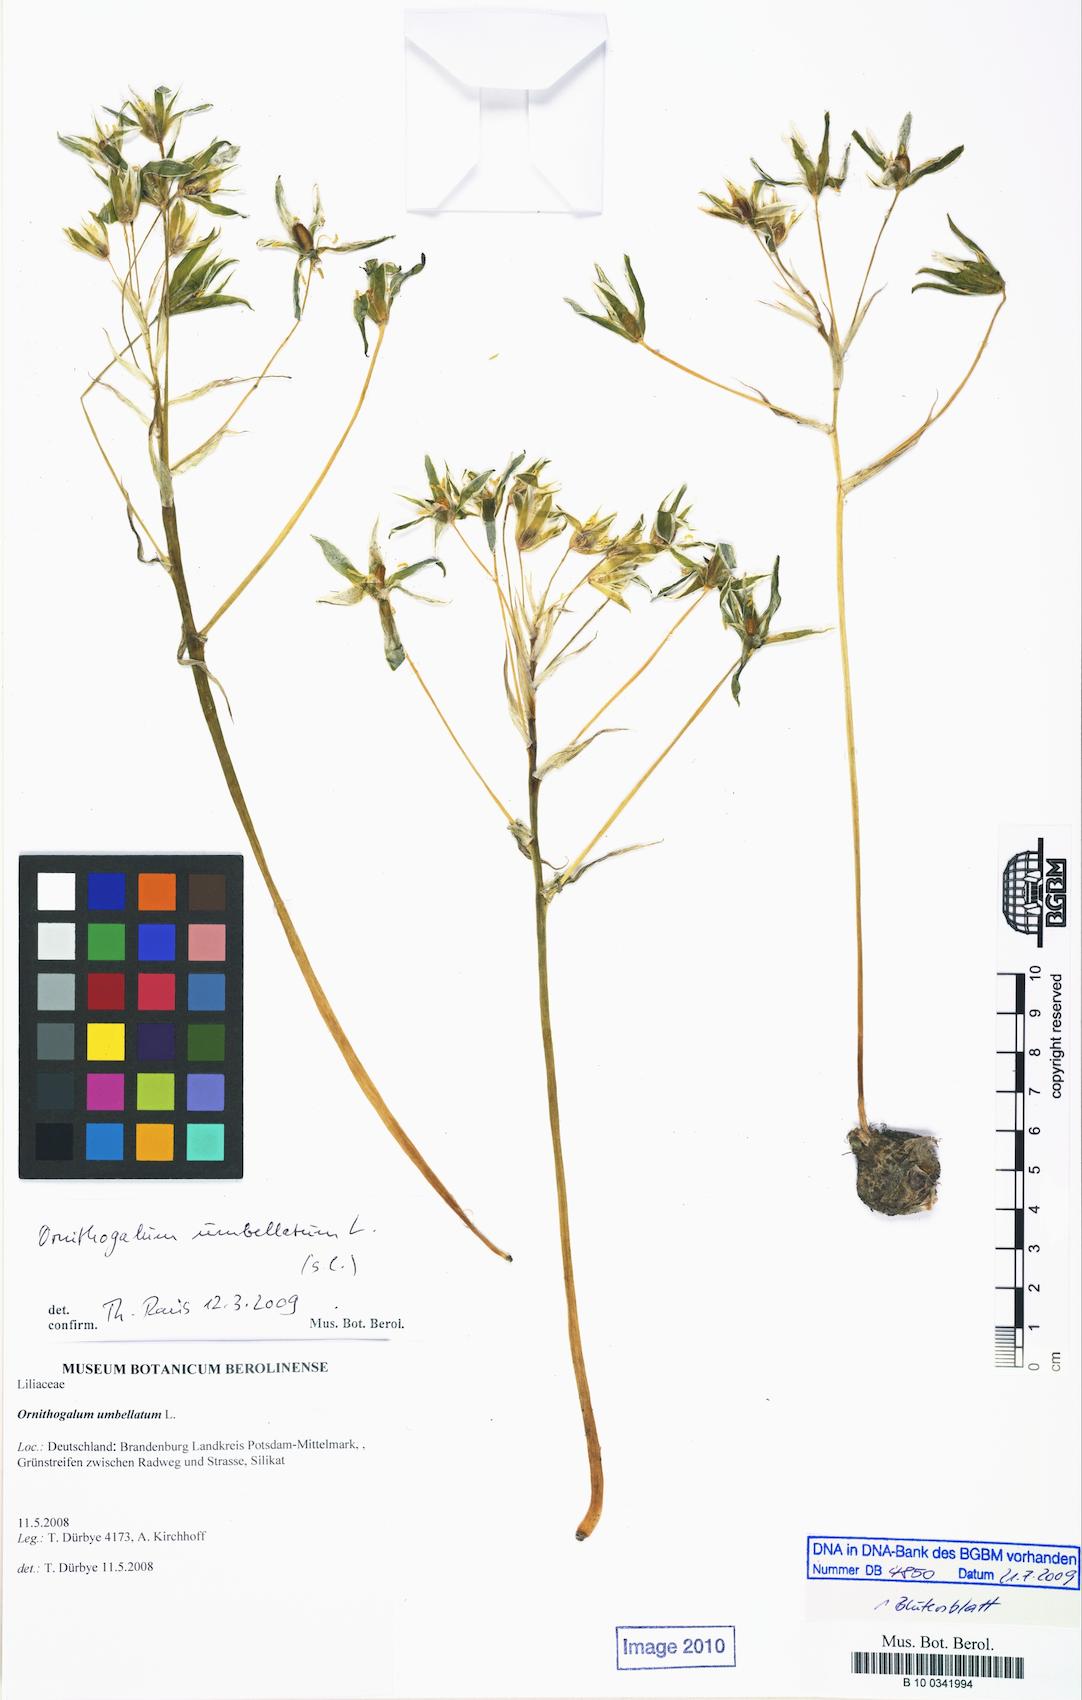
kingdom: Plantae
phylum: Tracheophyta
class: Liliopsida
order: Asparagales
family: Asparagaceae
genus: Ornithogalum
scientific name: Ornithogalum umbellatum
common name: Garden star-of-bethlehem
